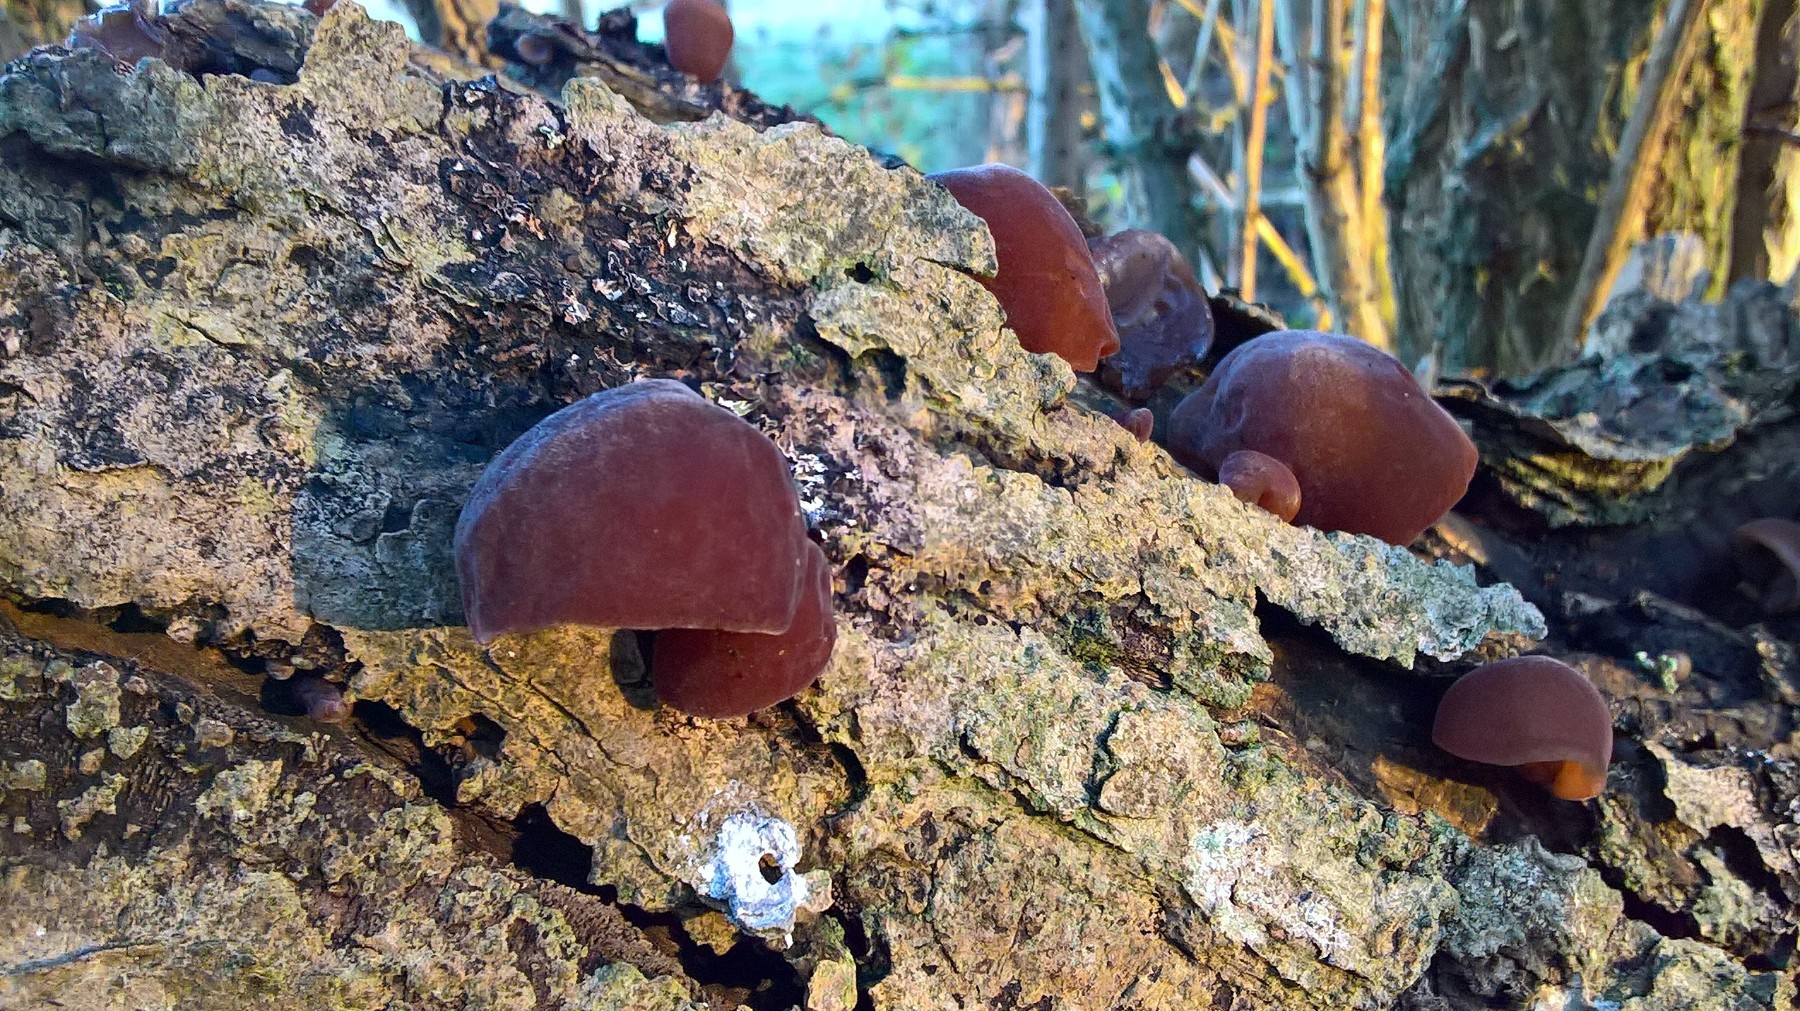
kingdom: Fungi
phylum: Basidiomycota
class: Agaricomycetes
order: Auriculariales
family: Auriculariaceae
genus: Auricularia
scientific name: Auricularia auricula-judae
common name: almindelig judasøre
